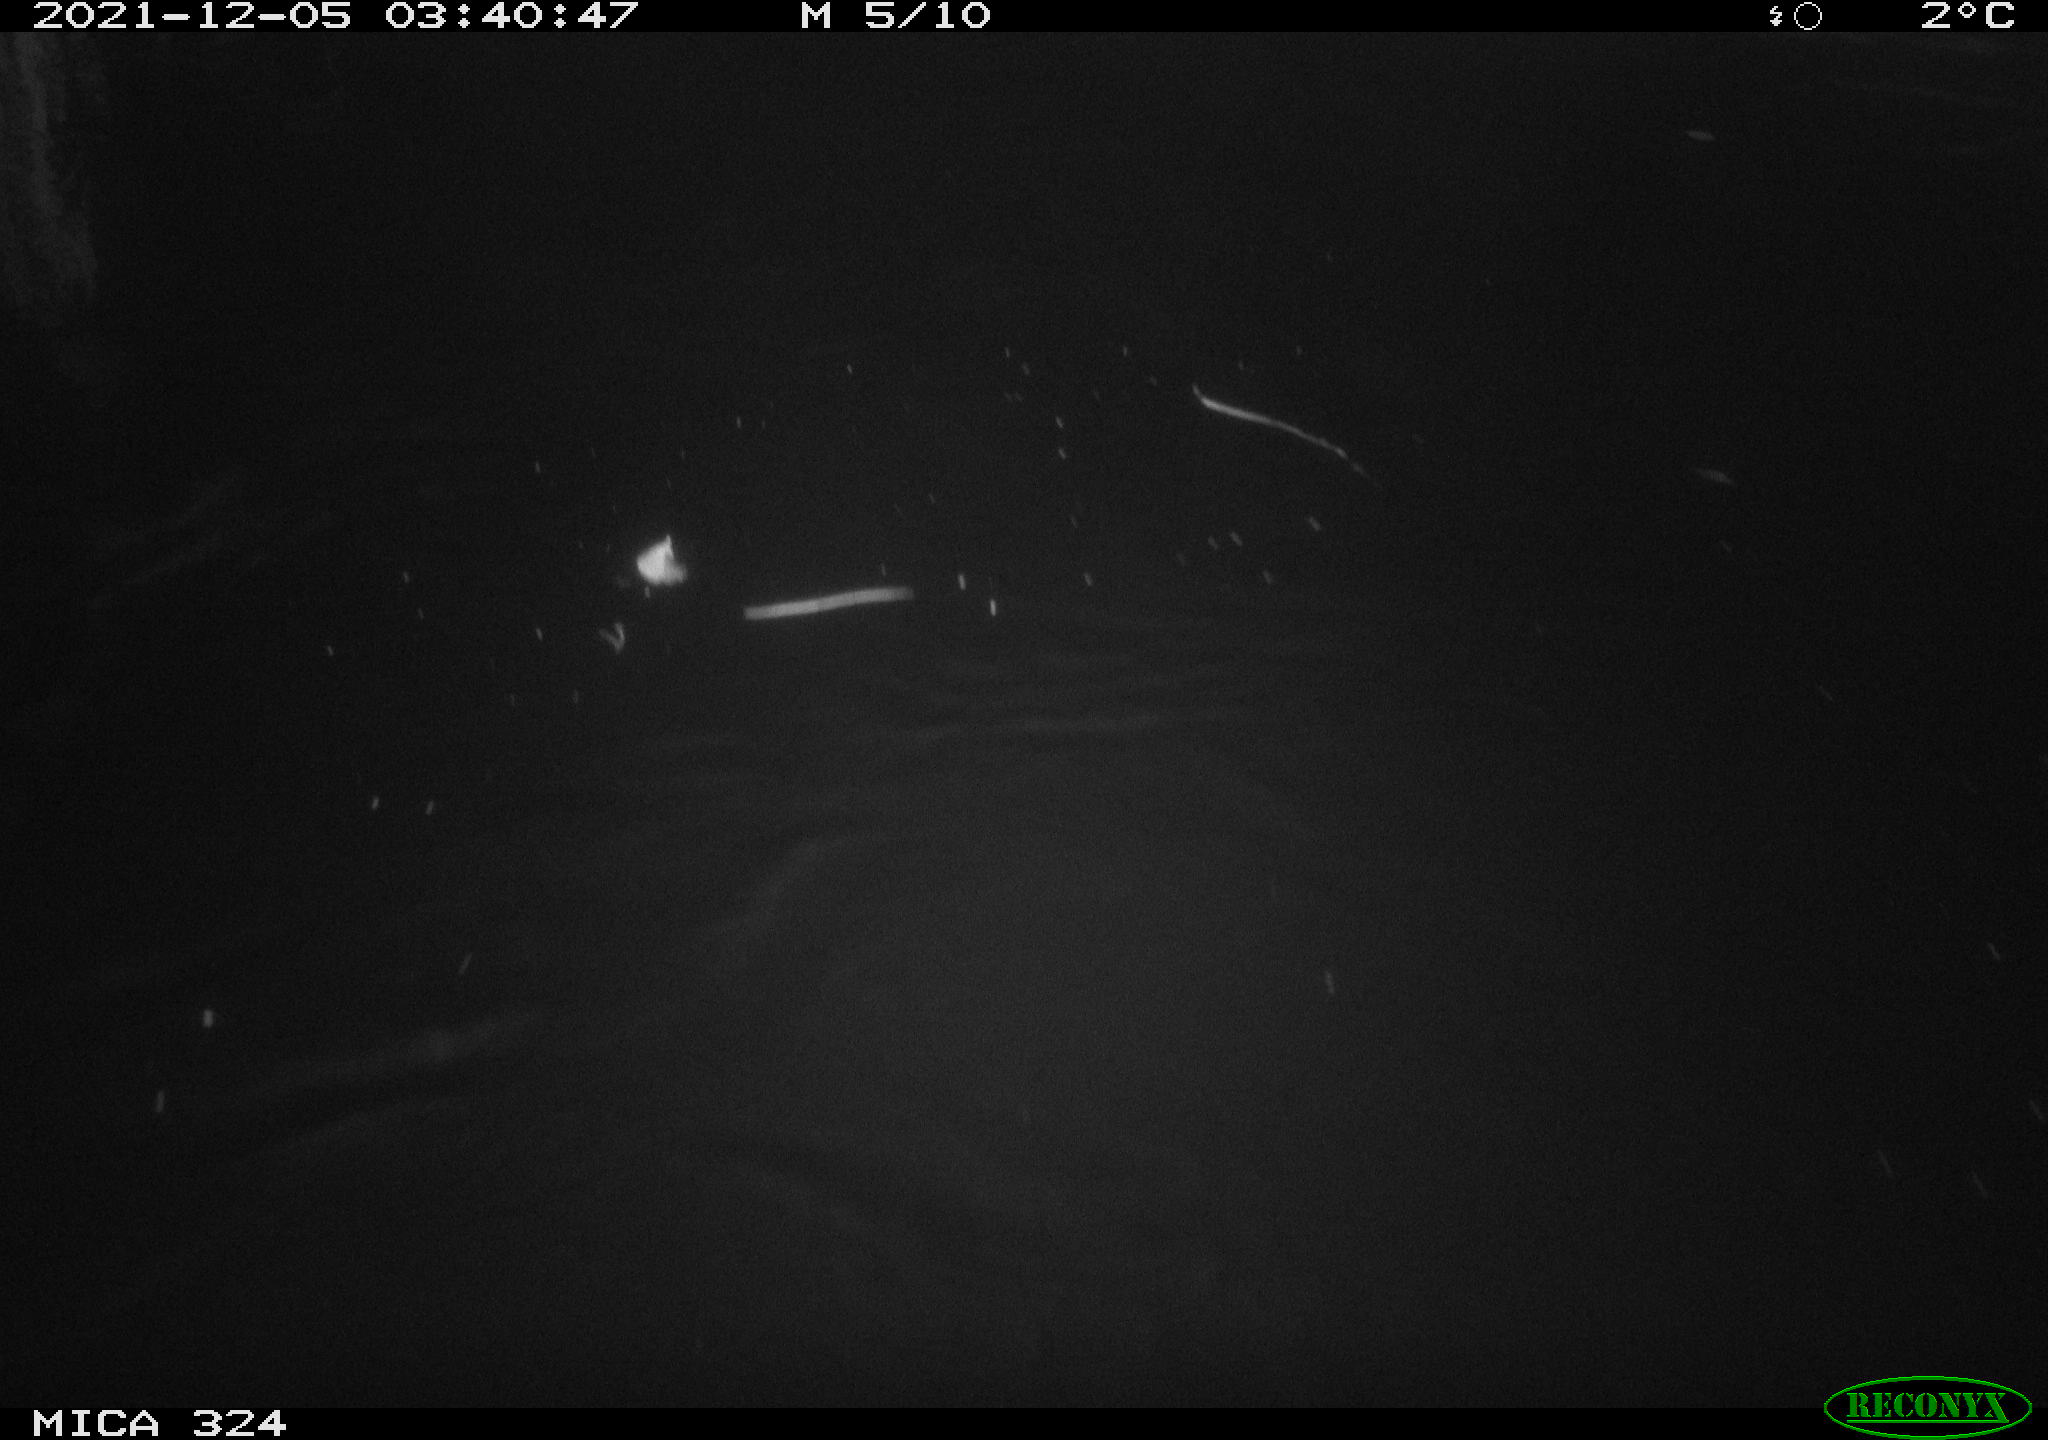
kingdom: Animalia
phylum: Chordata
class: Mammalia
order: Rodentia
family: Cricetidae
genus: Ondatra
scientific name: Ondatra zibethicus
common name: Muskrat
